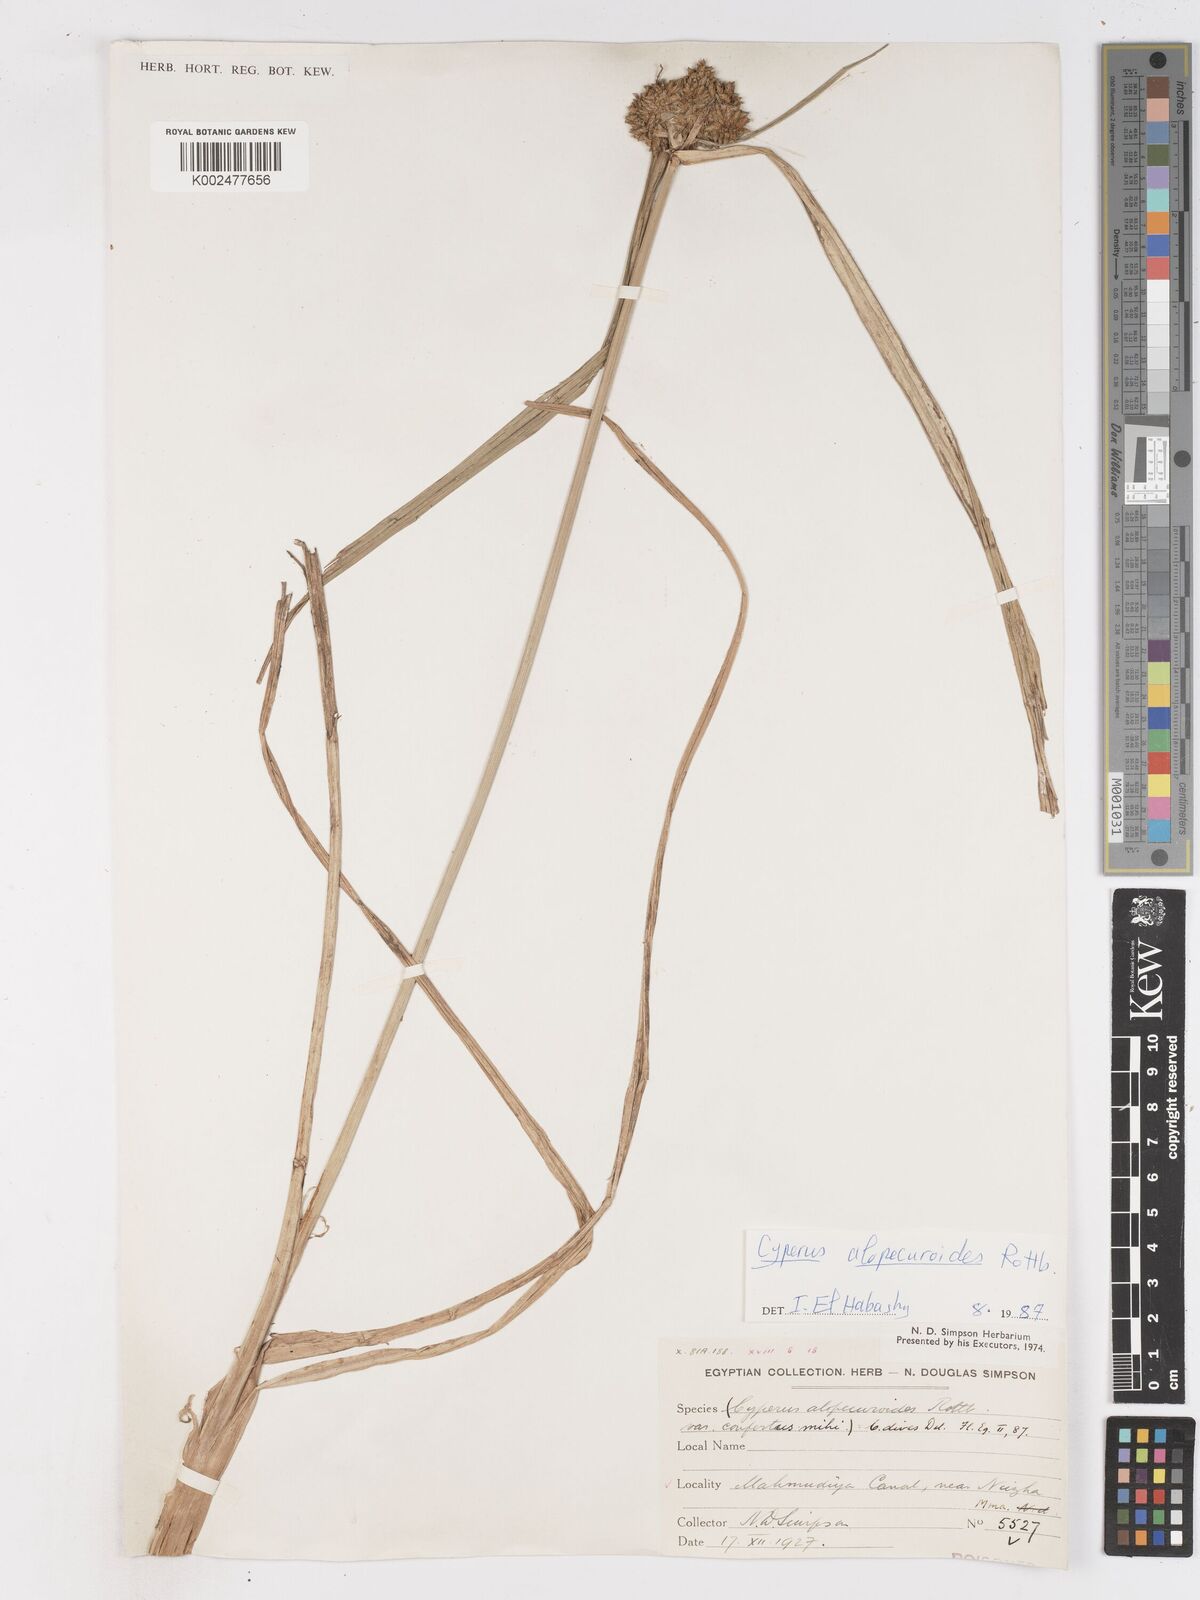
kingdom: Plantae
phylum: Tracheophyta
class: Liliopsida
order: Poales
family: Cyperaceae
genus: Cyperus
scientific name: Cyperus alopecuroides
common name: Foxtail flatsedge
